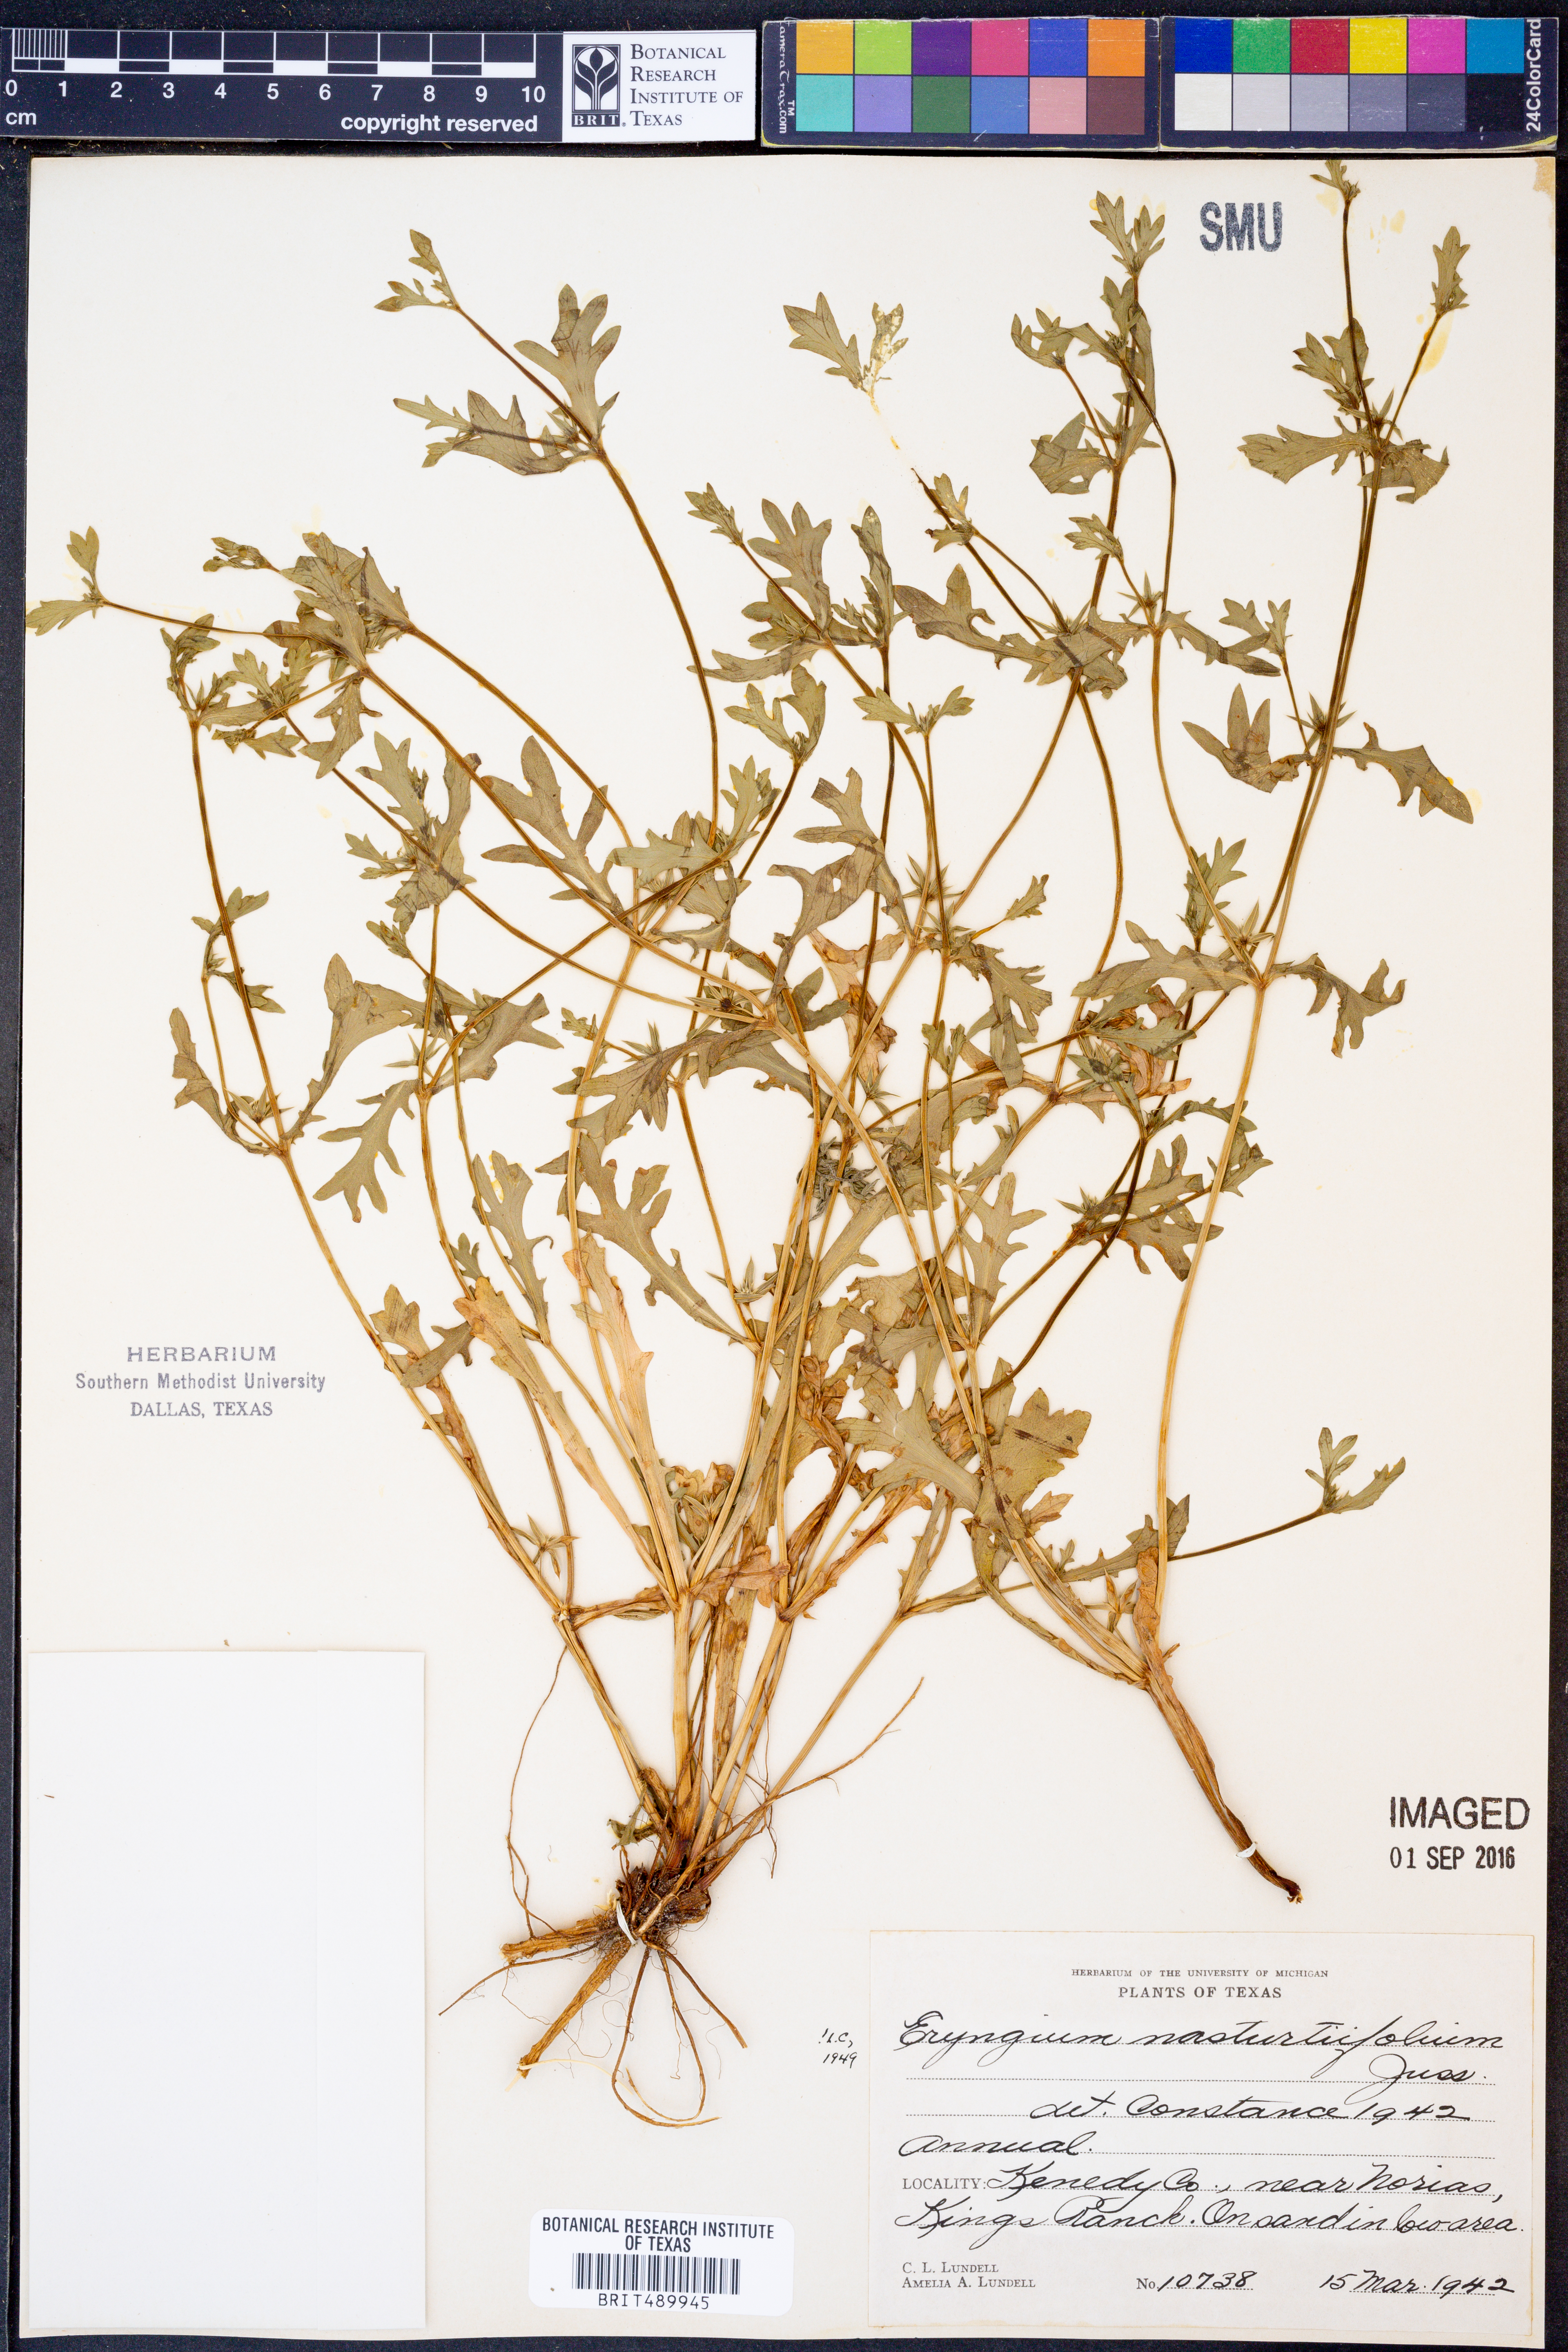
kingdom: Plantae
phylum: Tracheophyta
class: Magnoliopsida
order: Apiales
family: Apiaceae
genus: Eryngium
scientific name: Eryngium nasturtiifolium
